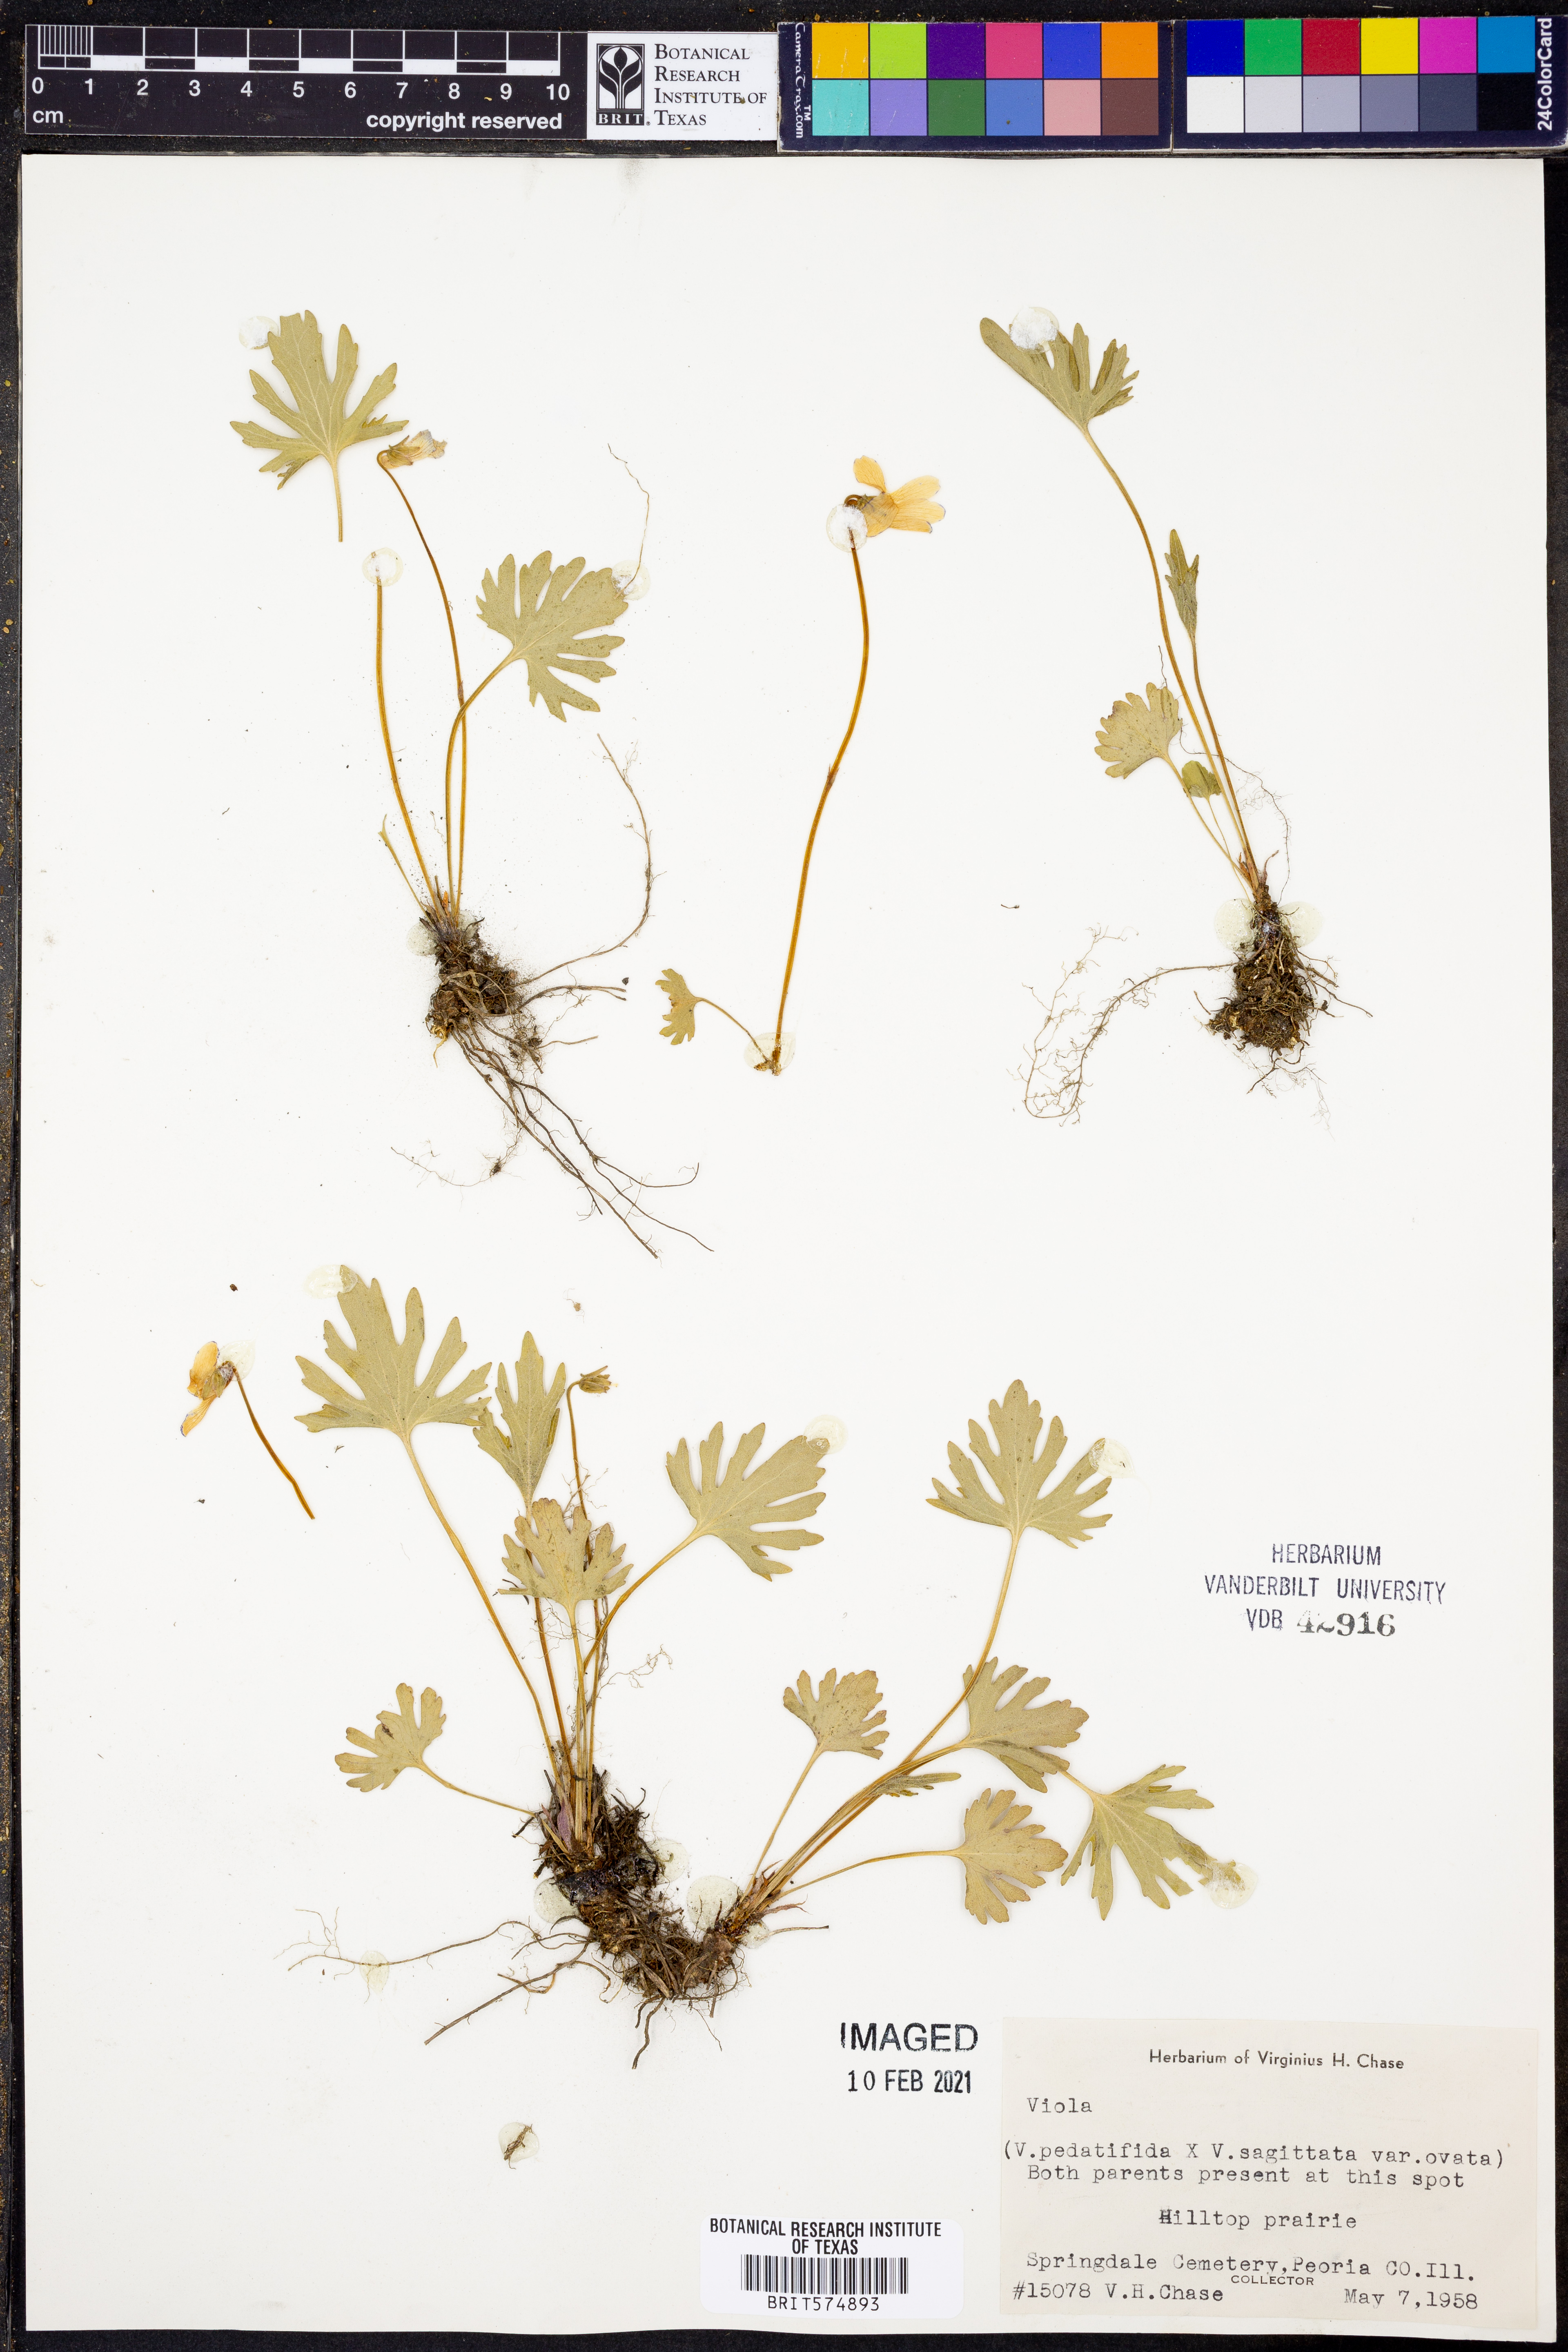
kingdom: Plantae
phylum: Tracheophyta
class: Magnoliopsida
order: Malpighiales
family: Violaceae
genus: Viola
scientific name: Viola
